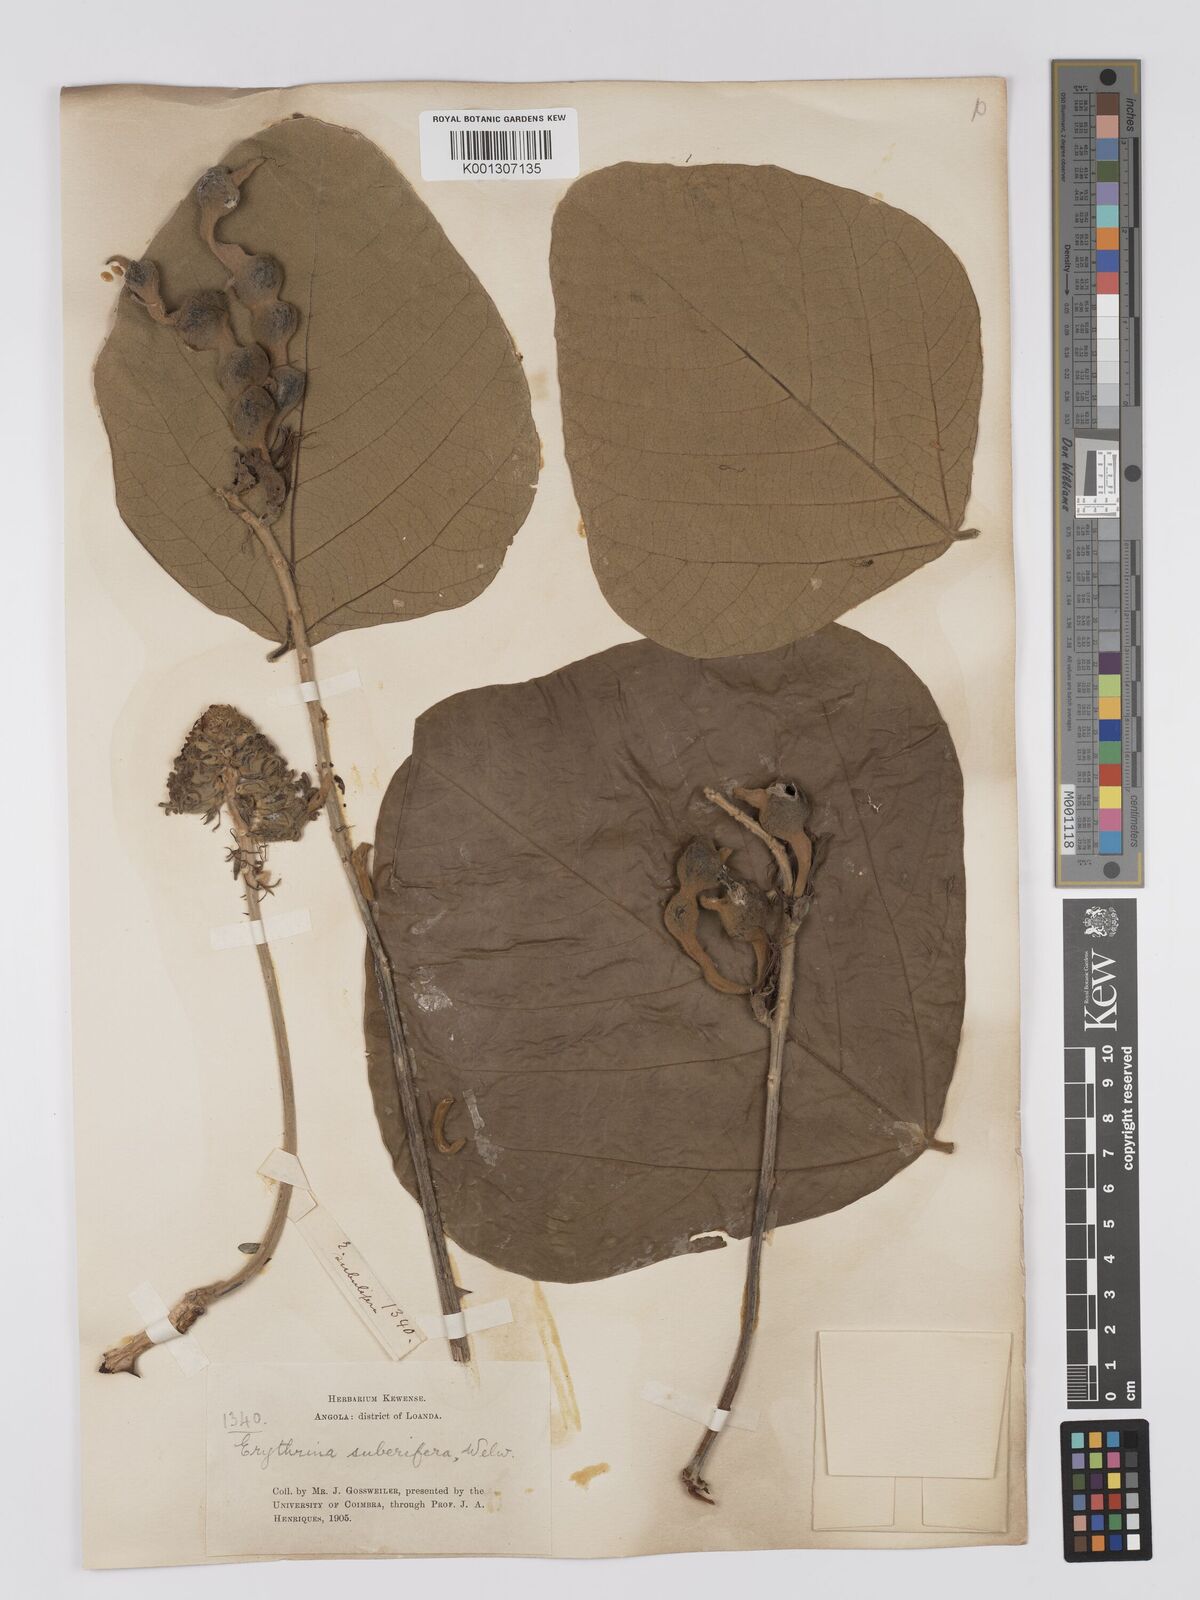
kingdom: Plantae
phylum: Tracheophyta
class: Magnoliopsida
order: Fabales
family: Fabaceae
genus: Erythrina
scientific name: Erythrina abyssinica
